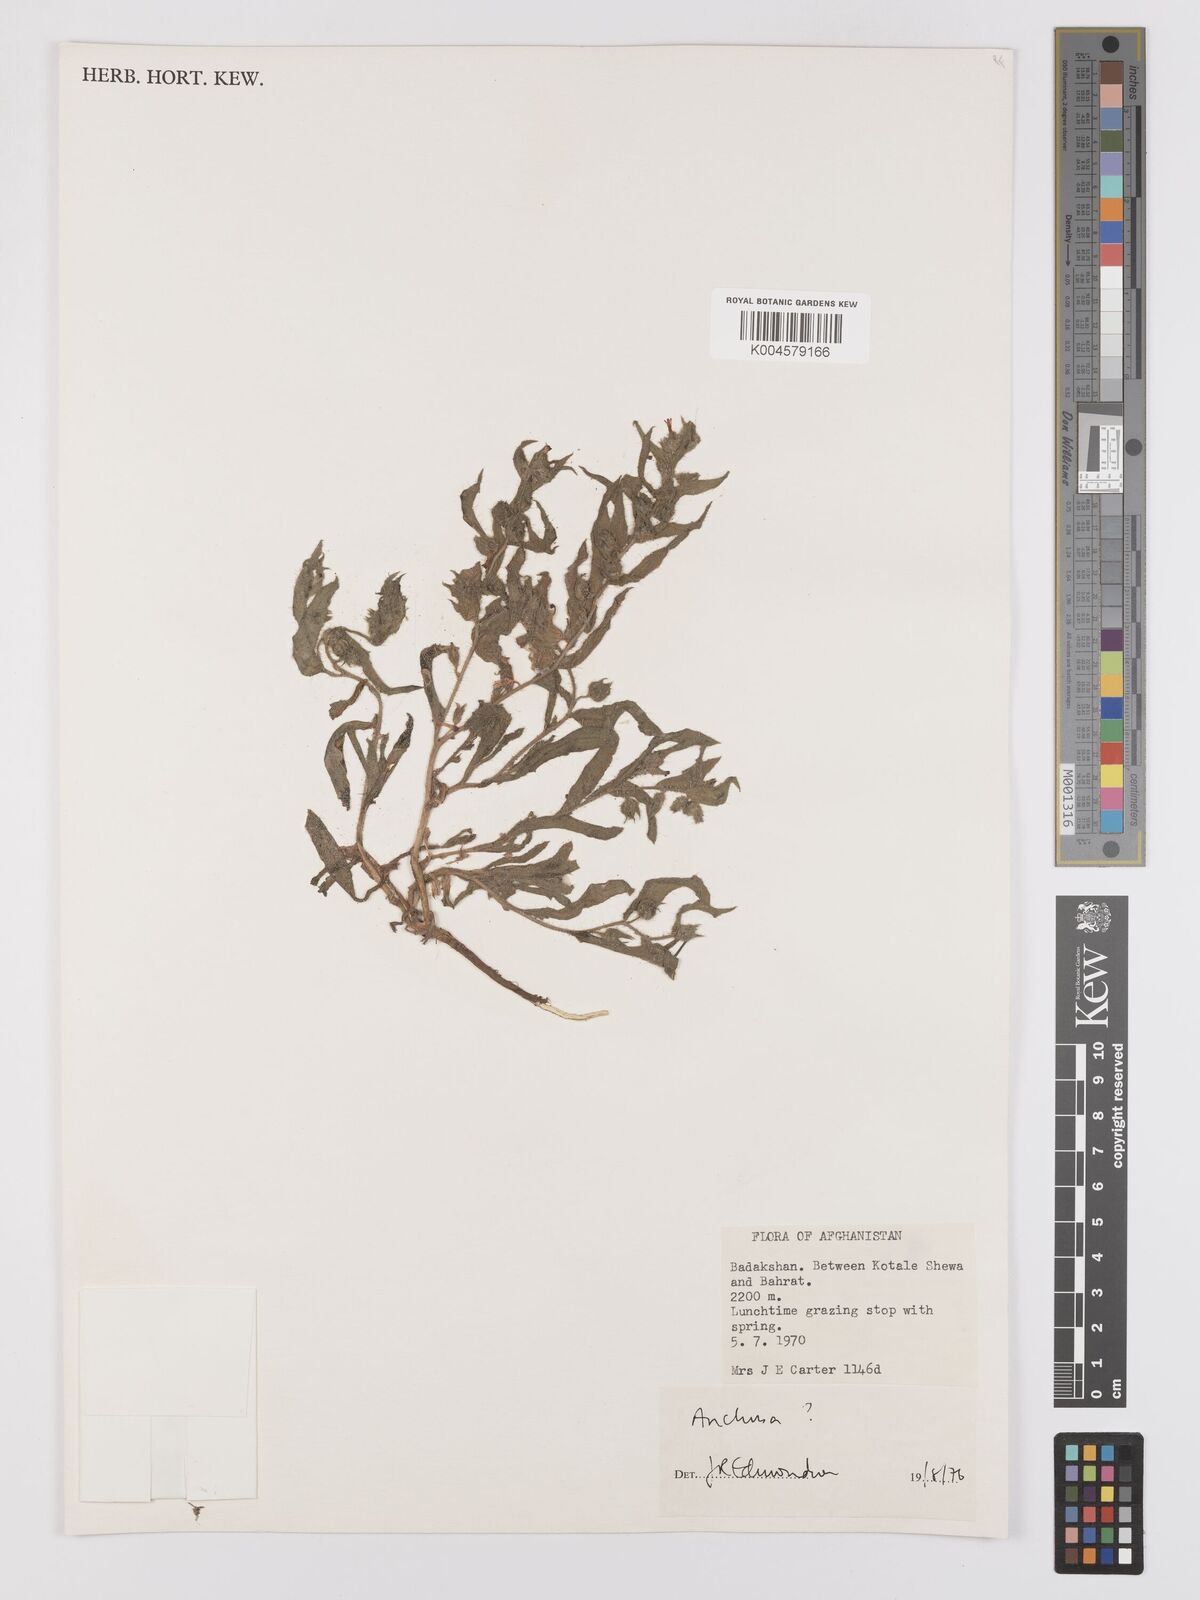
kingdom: Plantae
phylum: Tracheophyta
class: Magnoliopsida
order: Boraginales
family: Boraginaceae
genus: Nonea
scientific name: Nonea
